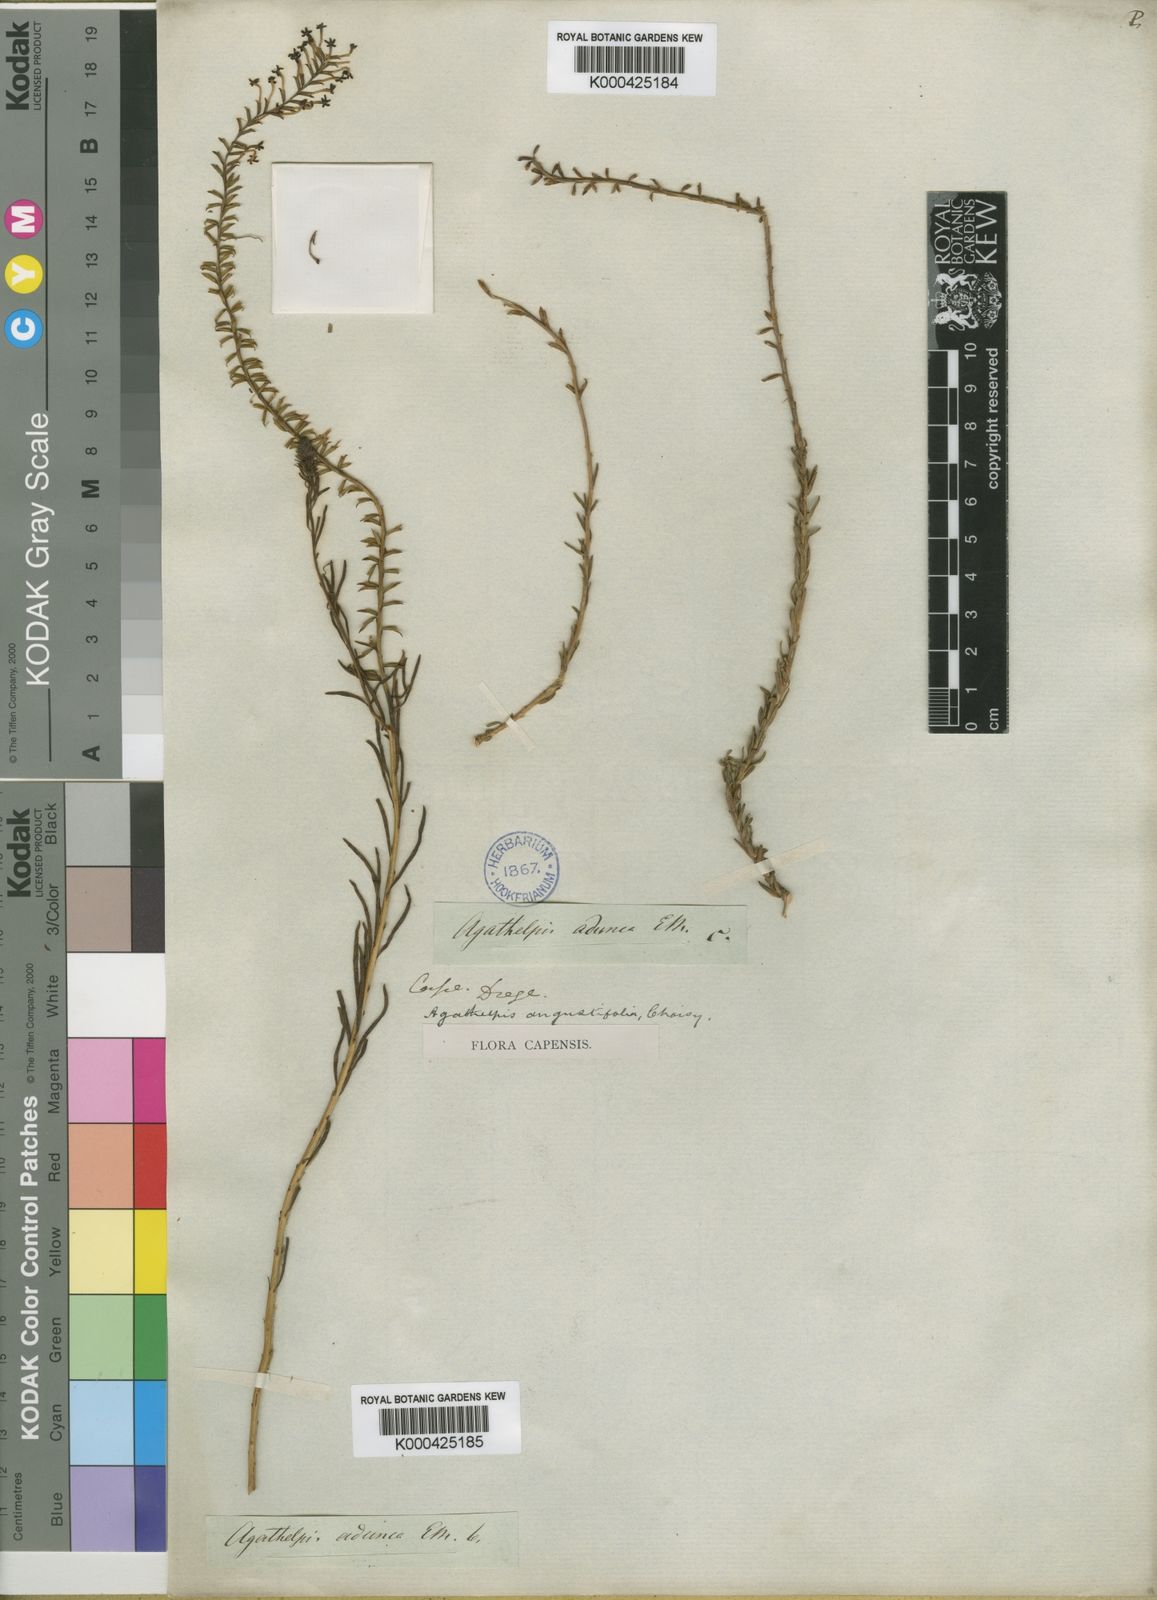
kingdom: Plantae
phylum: Tracheophyta
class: Magnoliopsida
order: Lamiales
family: Scrophulariaceae
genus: Microdon
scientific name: Microdon dubius
